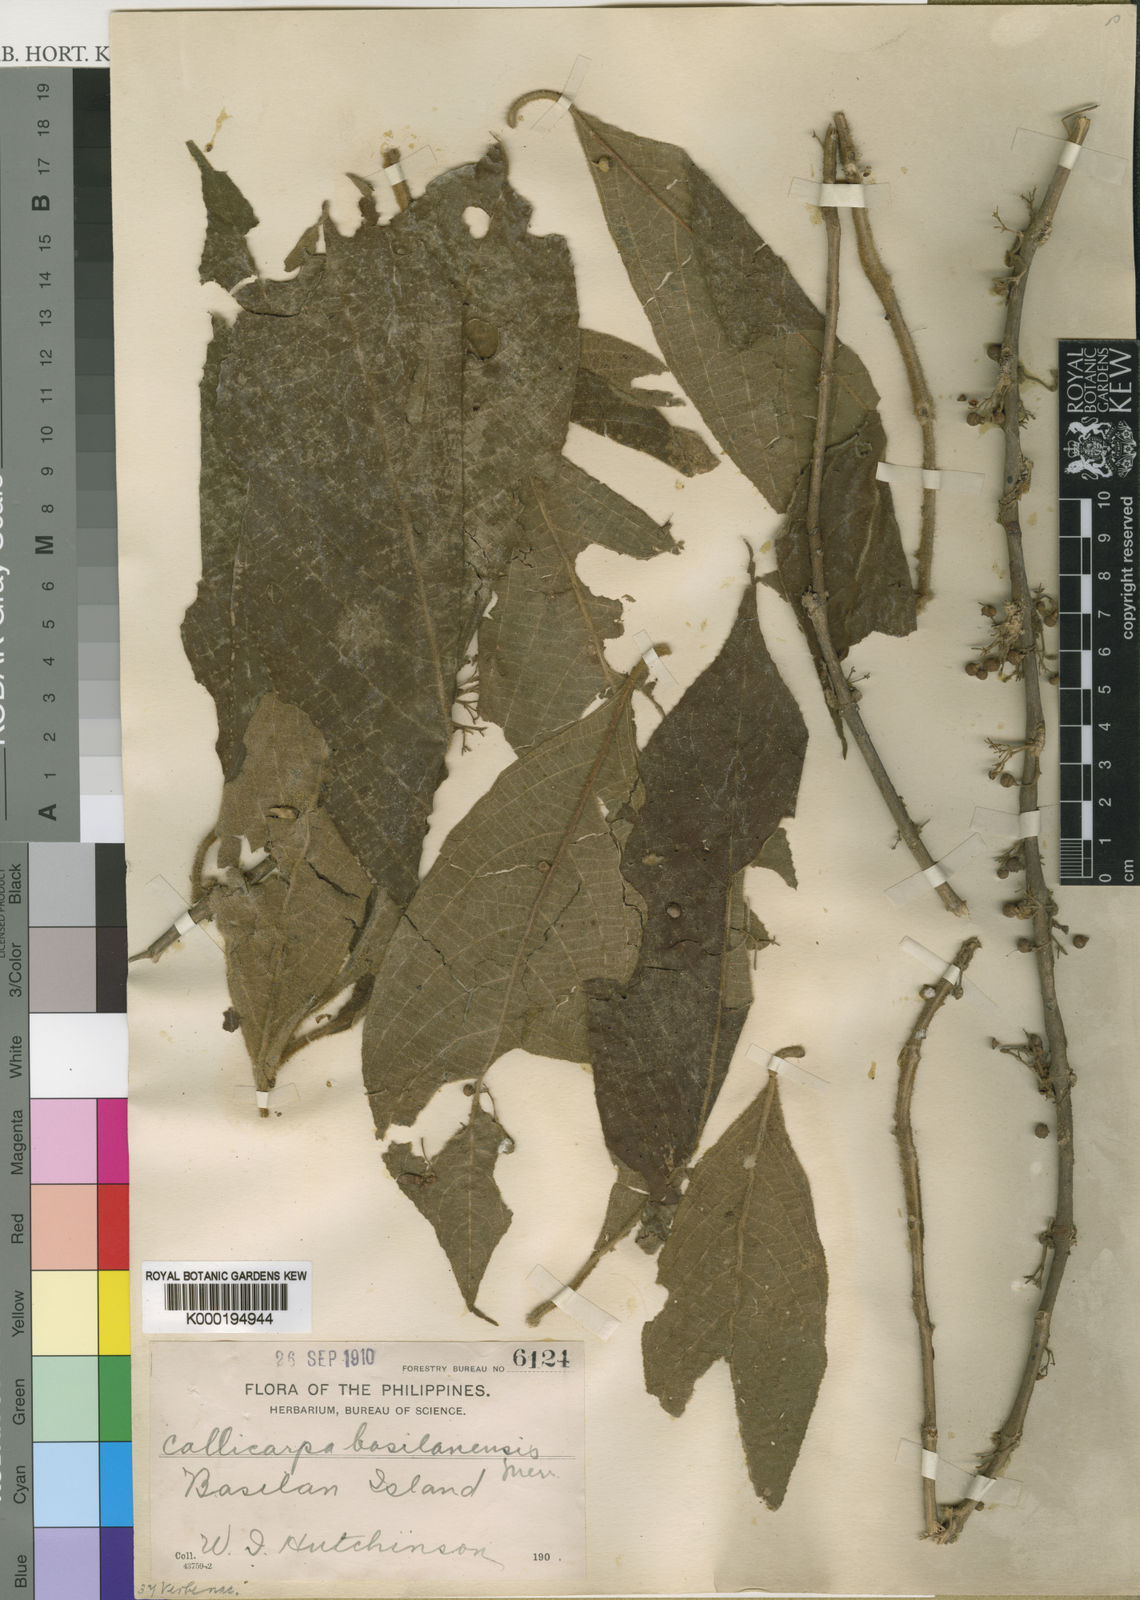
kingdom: Plantae
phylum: Tracheophyta
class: Magnoliopsida
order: Lamiales
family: Lamiaceae
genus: Callicarpa
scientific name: Callicarpa
